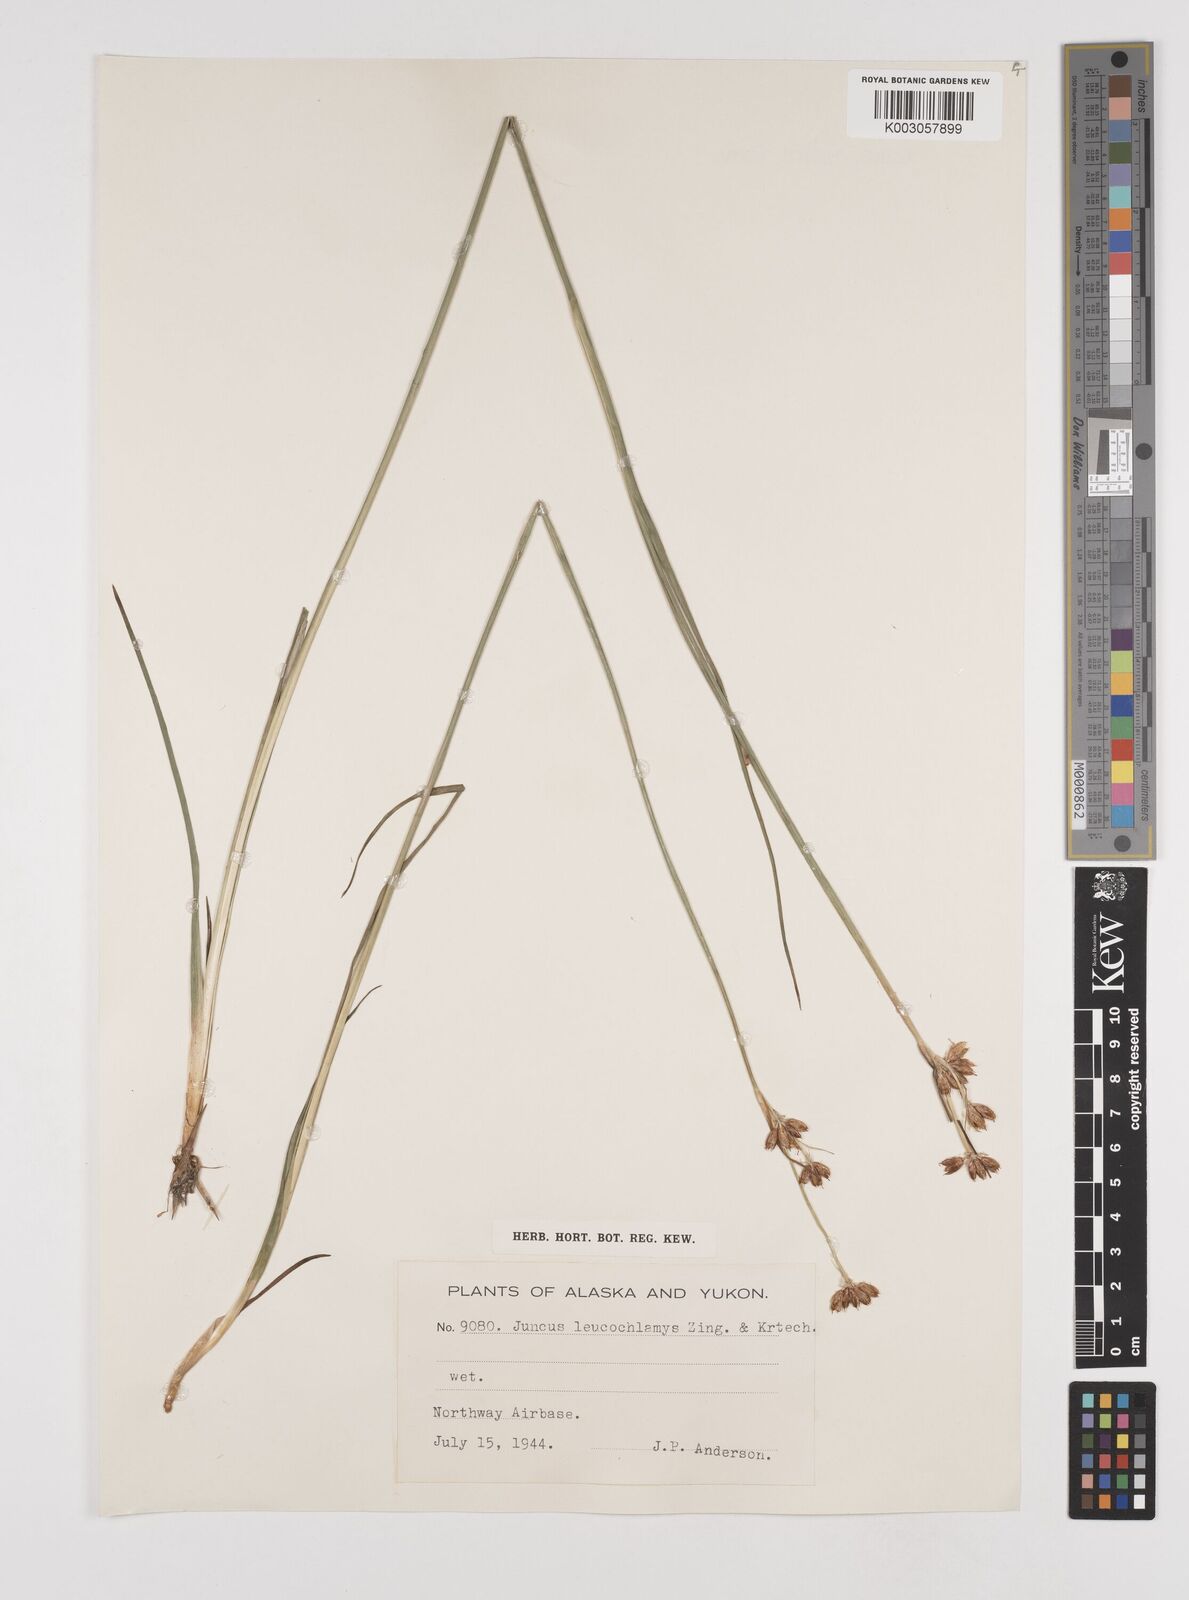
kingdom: Plantae
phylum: Tracheophyta
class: Liliopsida
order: Poales
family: Juncaceae
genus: Juncus
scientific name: Juncus castaneus
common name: Chestnut rush
